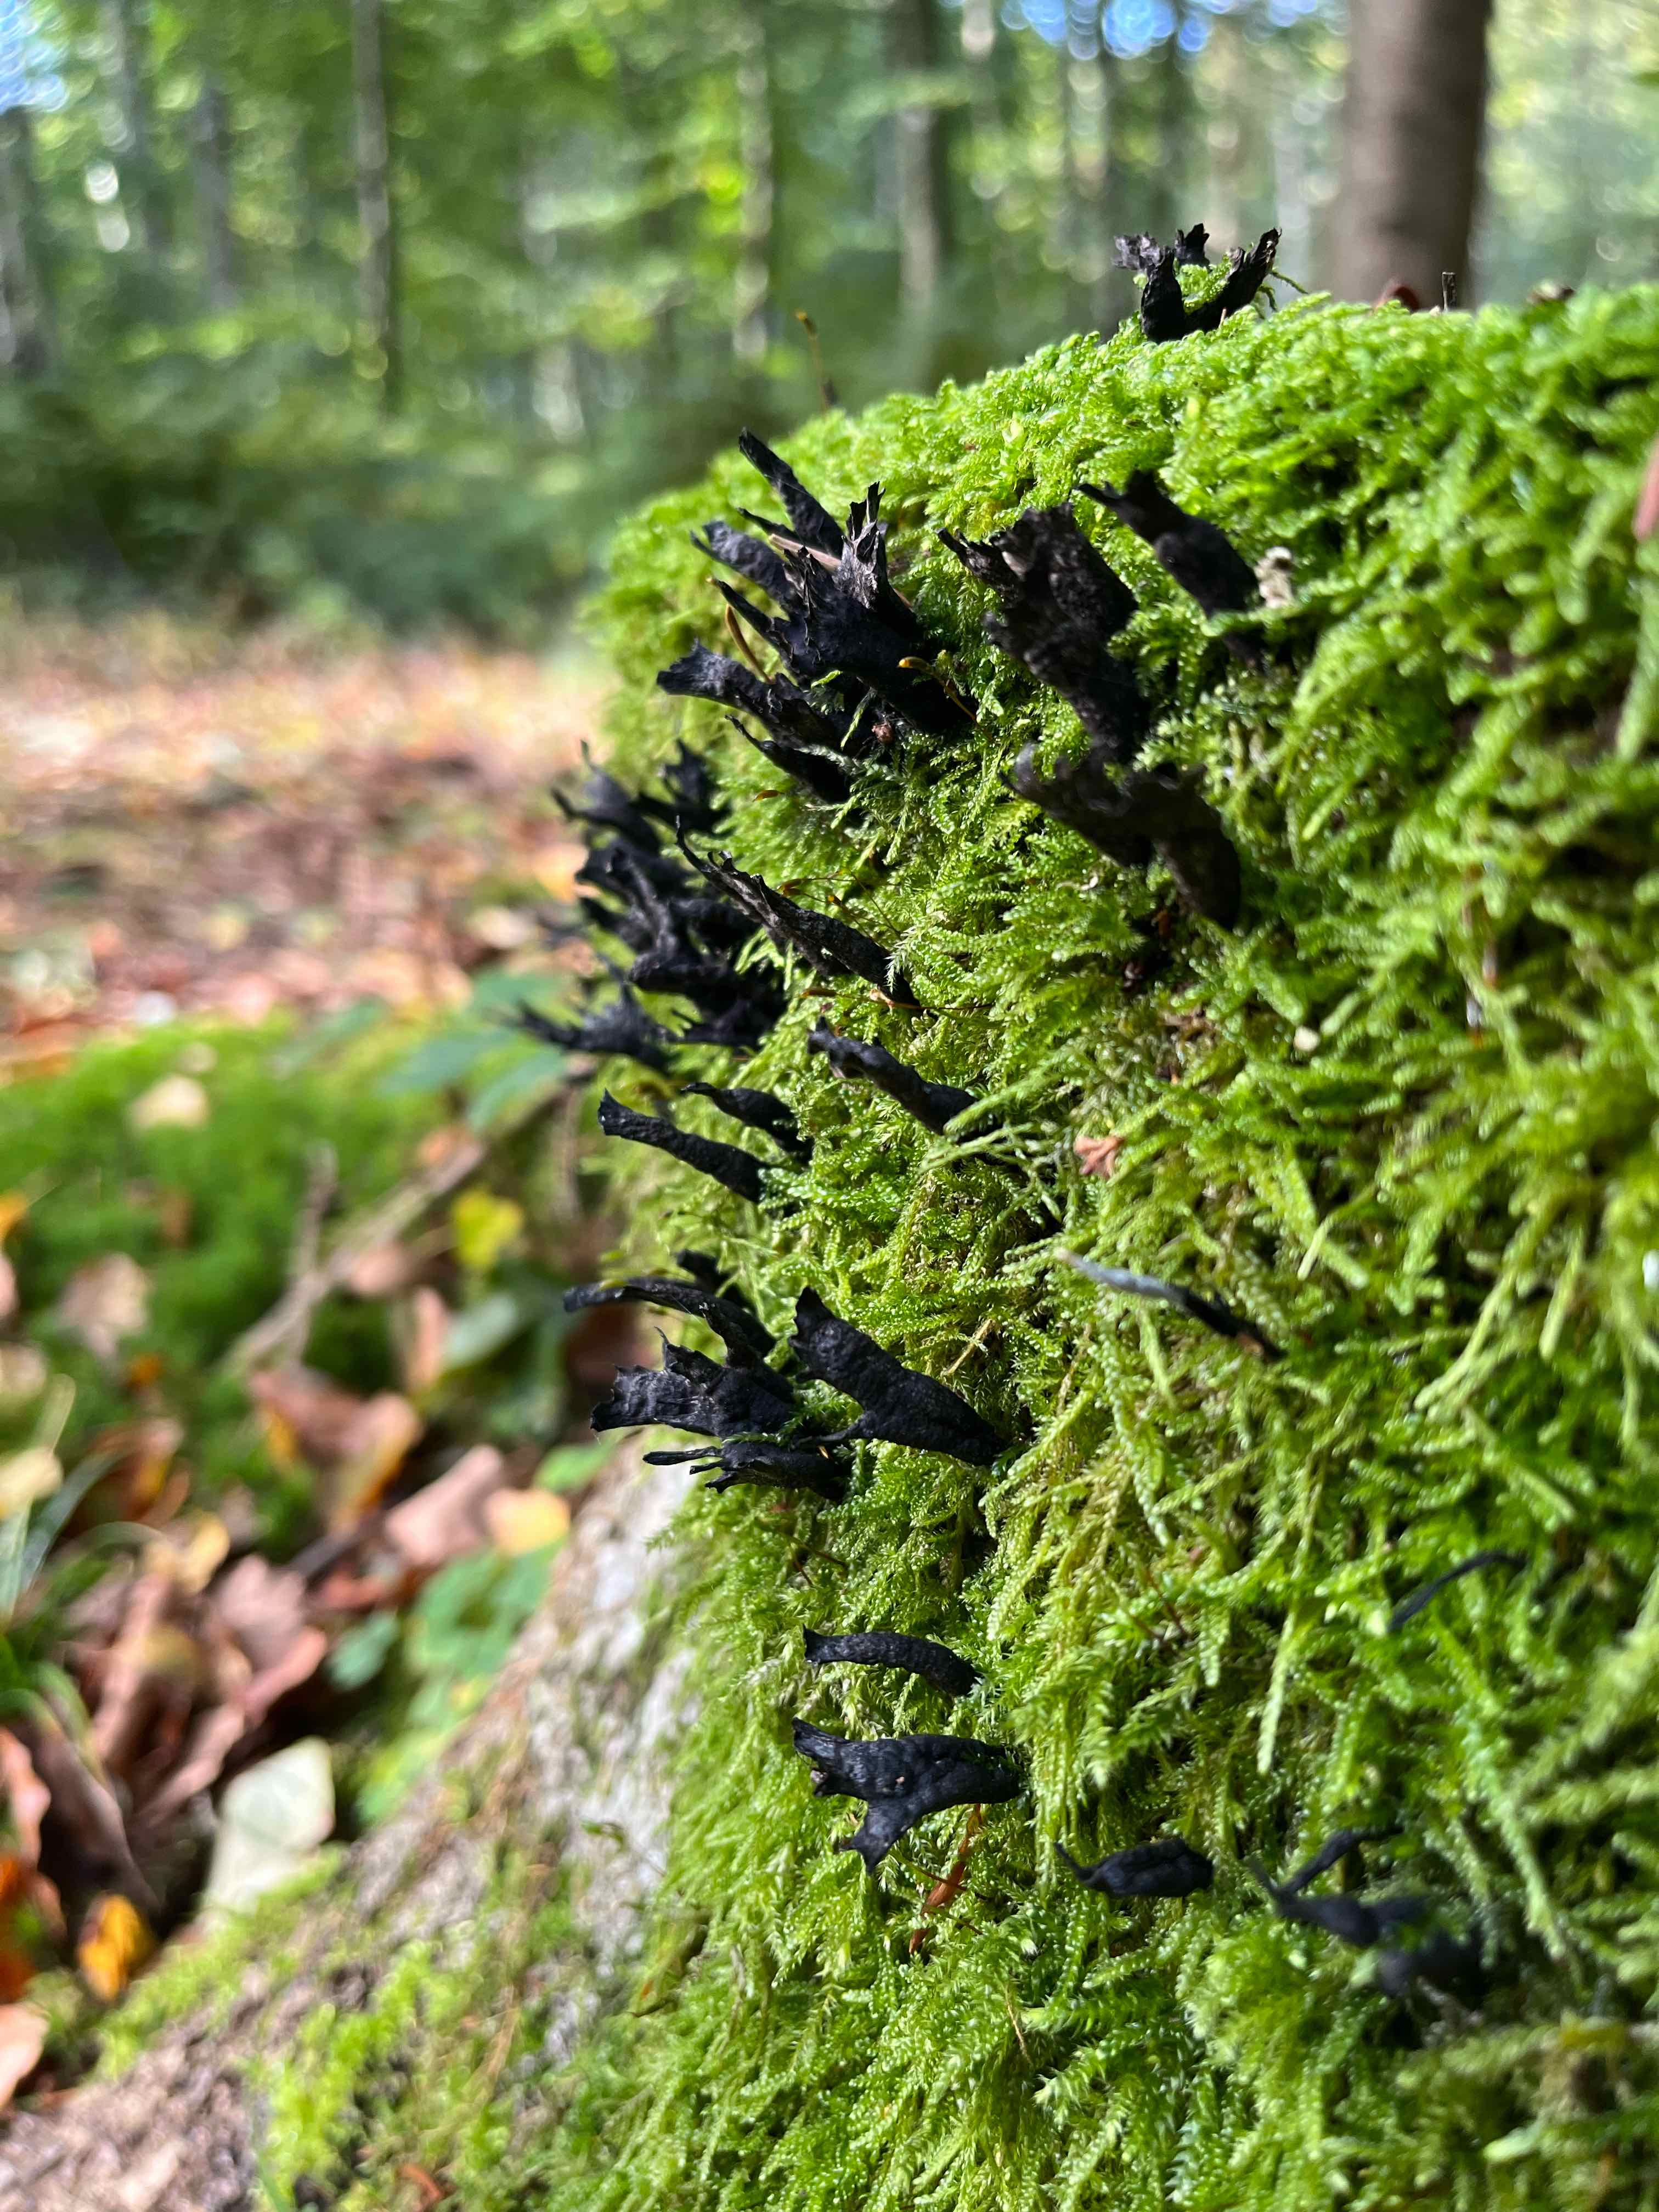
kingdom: Fungi
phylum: Ascomycota
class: Sordariomycetes
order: Xylariales
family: Xylariaceae
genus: Xylaria
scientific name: Xylaria hypoxylon
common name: grenet stødsvamp
